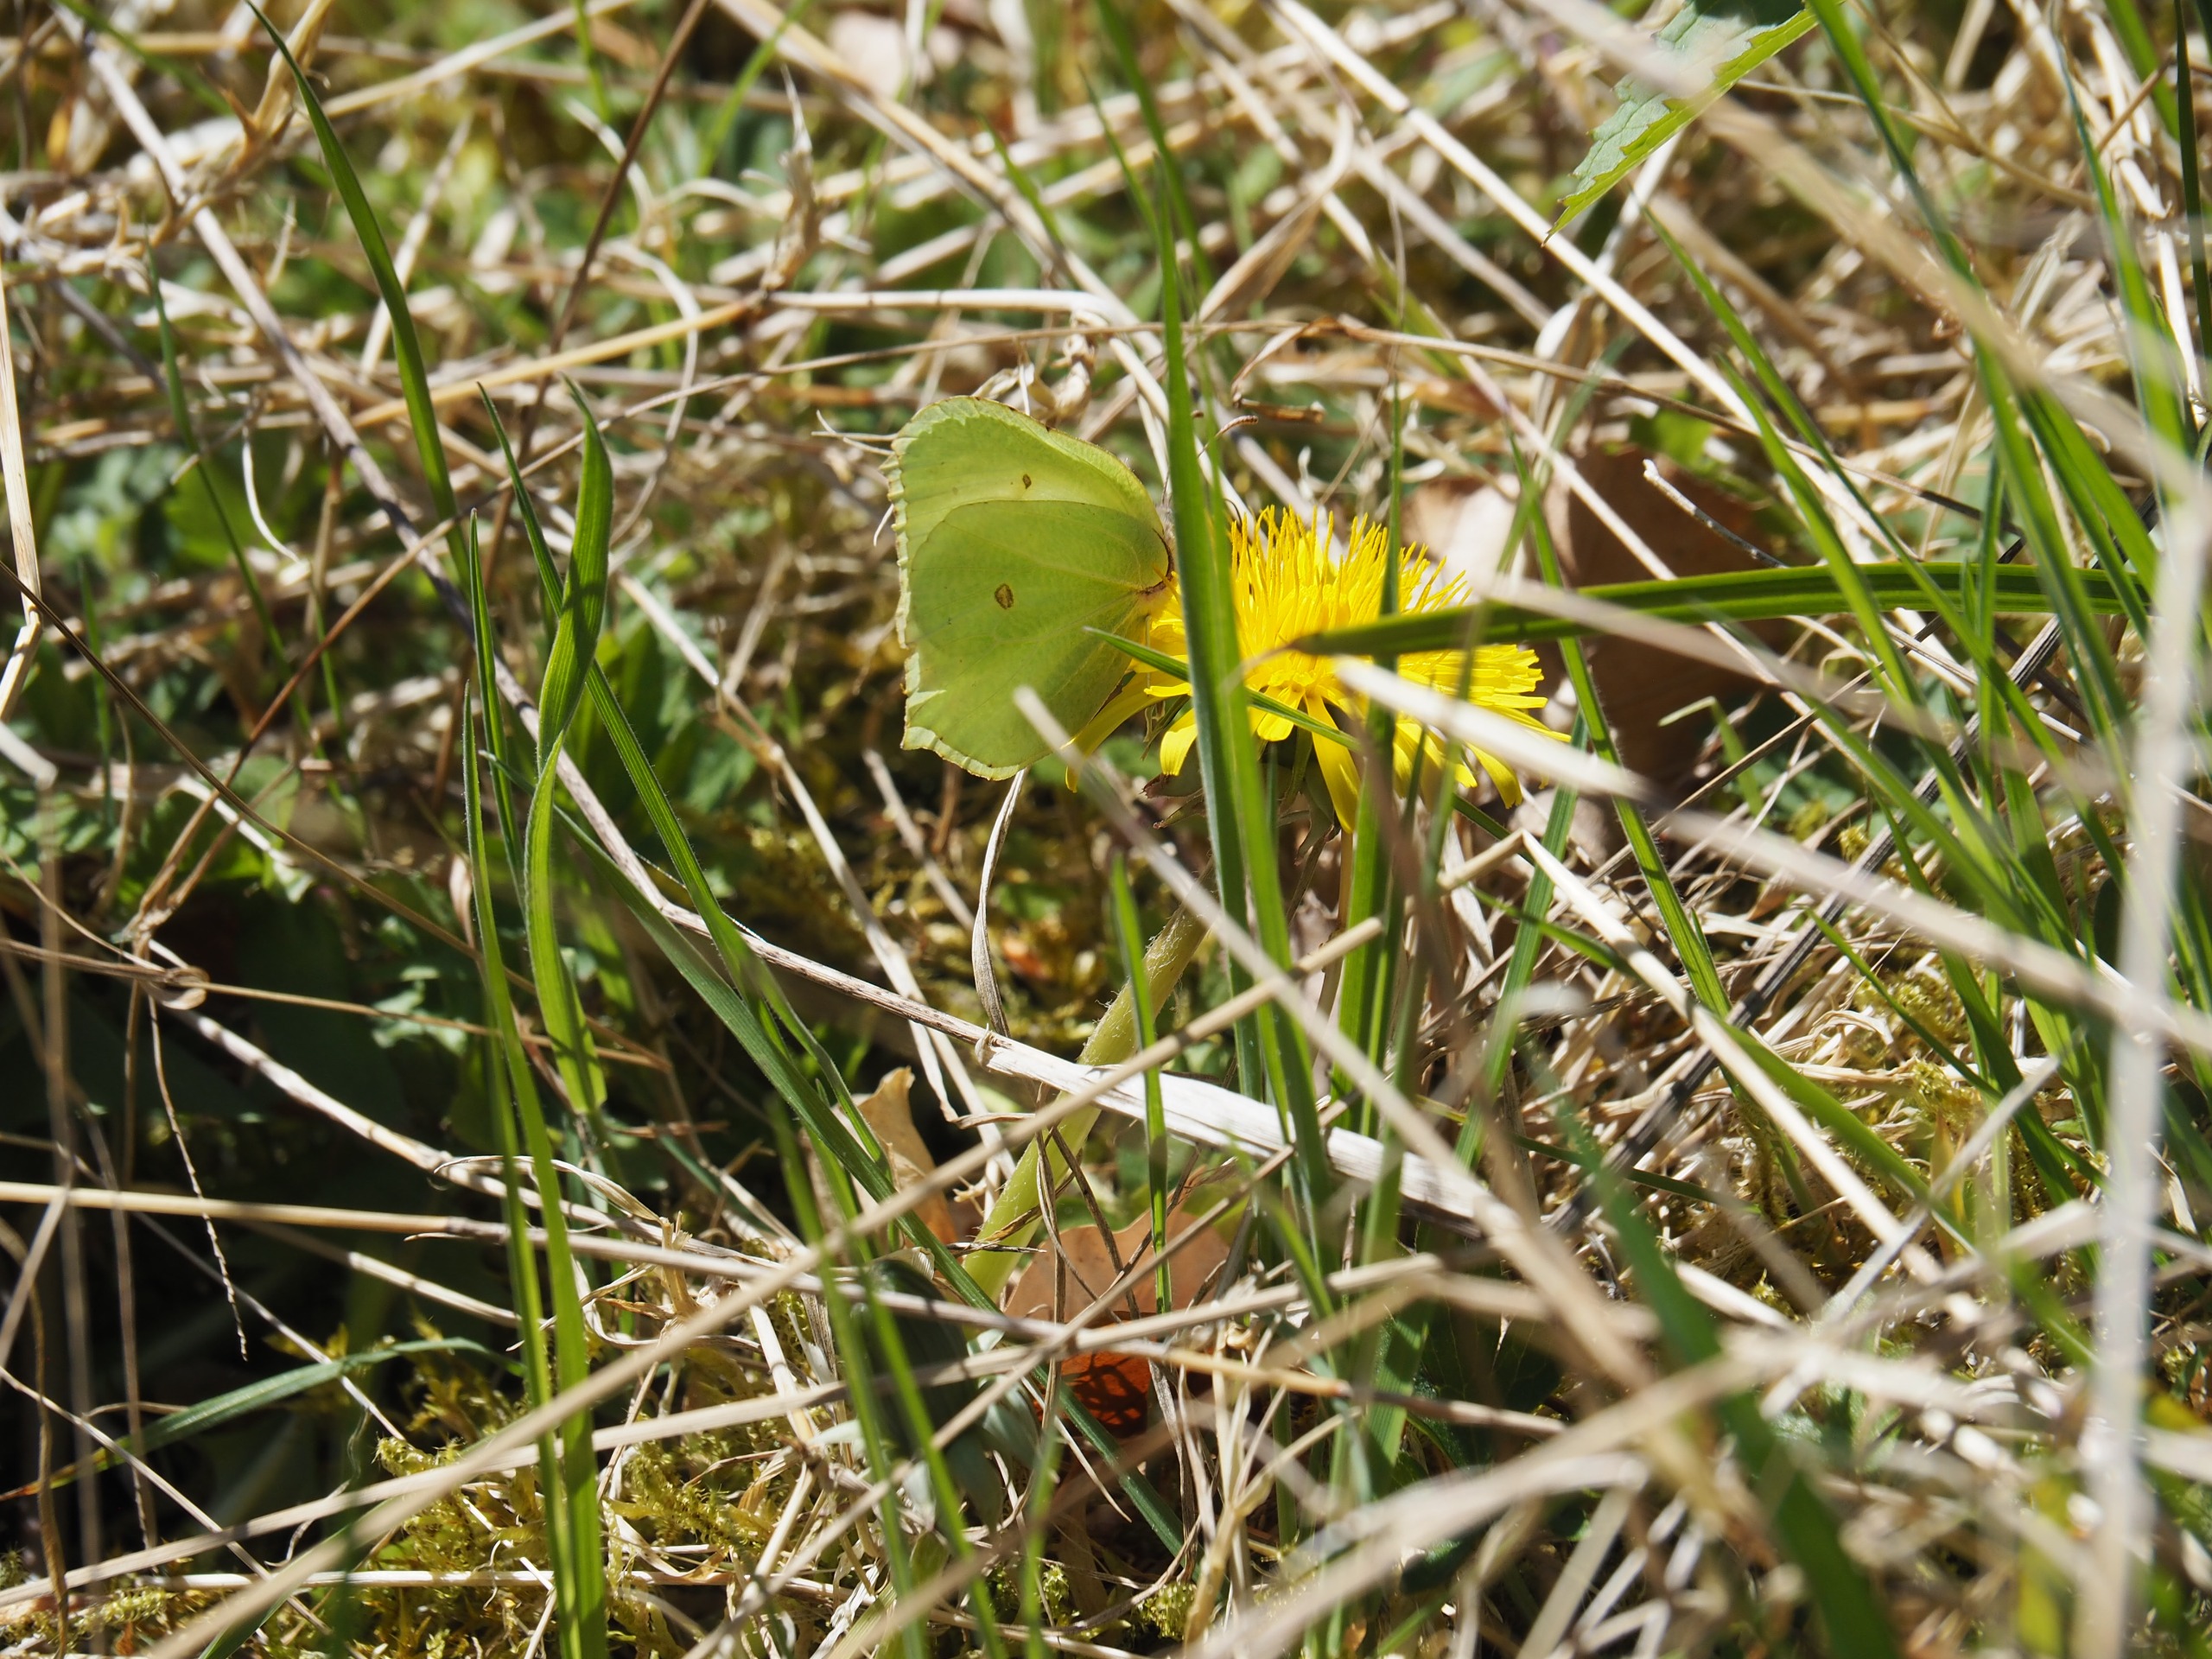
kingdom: Animalia
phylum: Arthropoda
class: Insecta
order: Lepidoptera
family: Pieridae
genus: Gonepteryx
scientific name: Gonepteryx rhamni
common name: Citronsommerfugl
